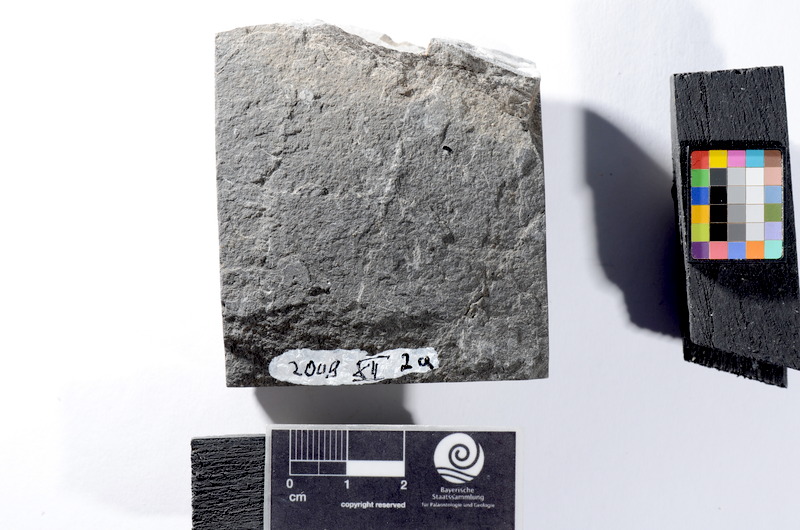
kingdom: Animalia
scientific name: Animalia
